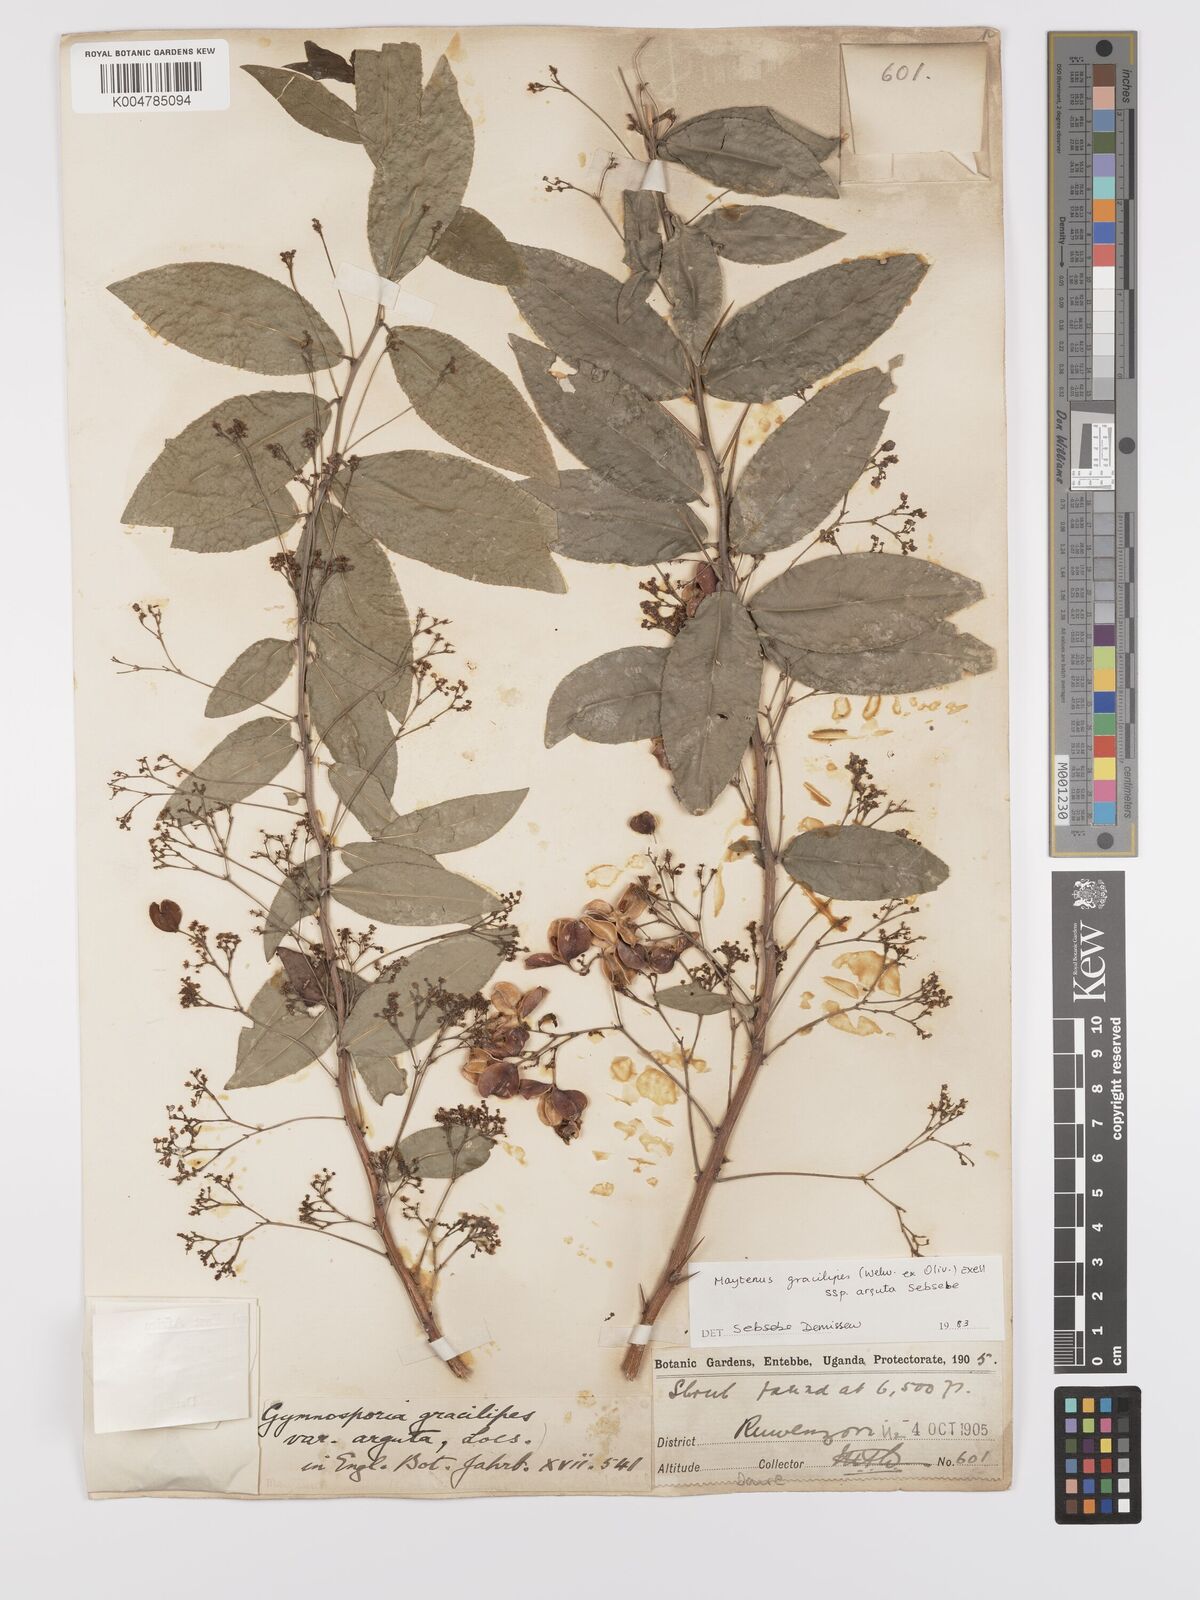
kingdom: Plantae
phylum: Tracheophyta
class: Magnoliopsida
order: Celastrales
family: Celastraceae
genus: Gymnosporia
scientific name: Gymnosporia gracilipes
